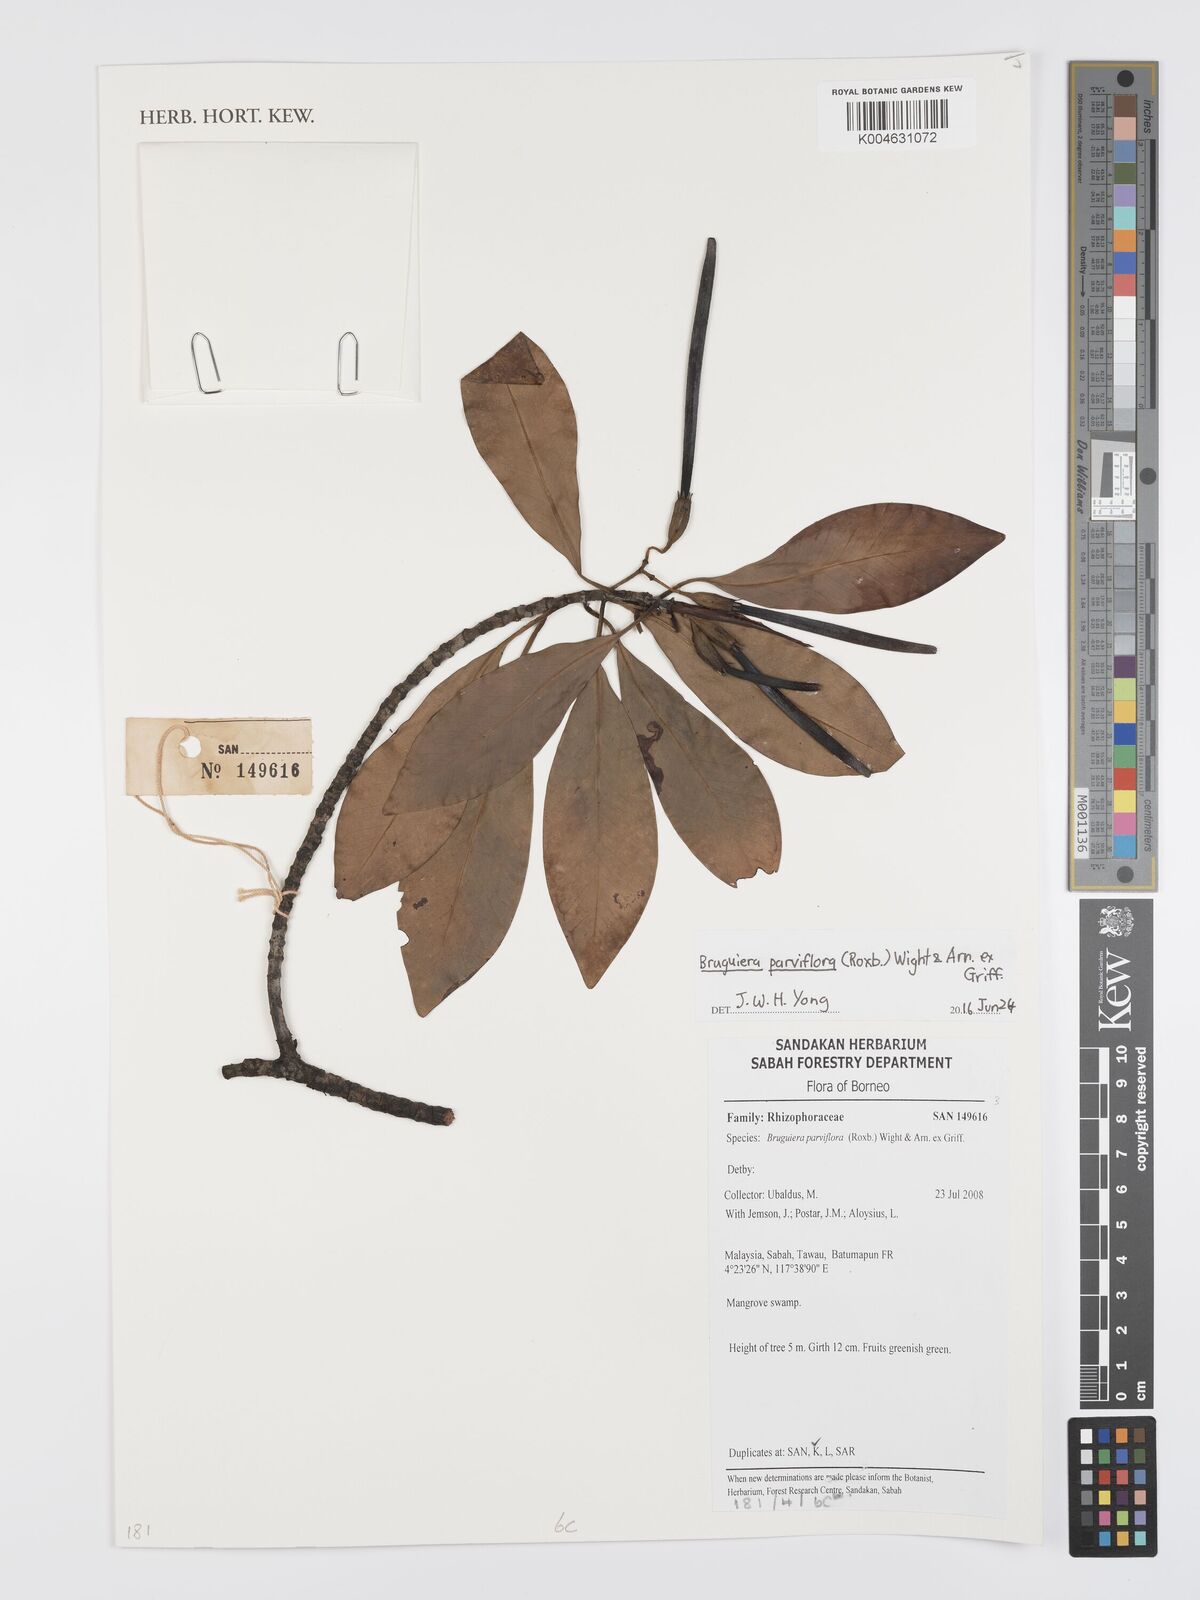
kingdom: Plantae
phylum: Tracheophyta
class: Magnoliopsida
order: Malpighiales
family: Rhizophoraceae
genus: Bruguiera
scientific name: Bruguiera parviflora
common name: Smallflower bruguiera
